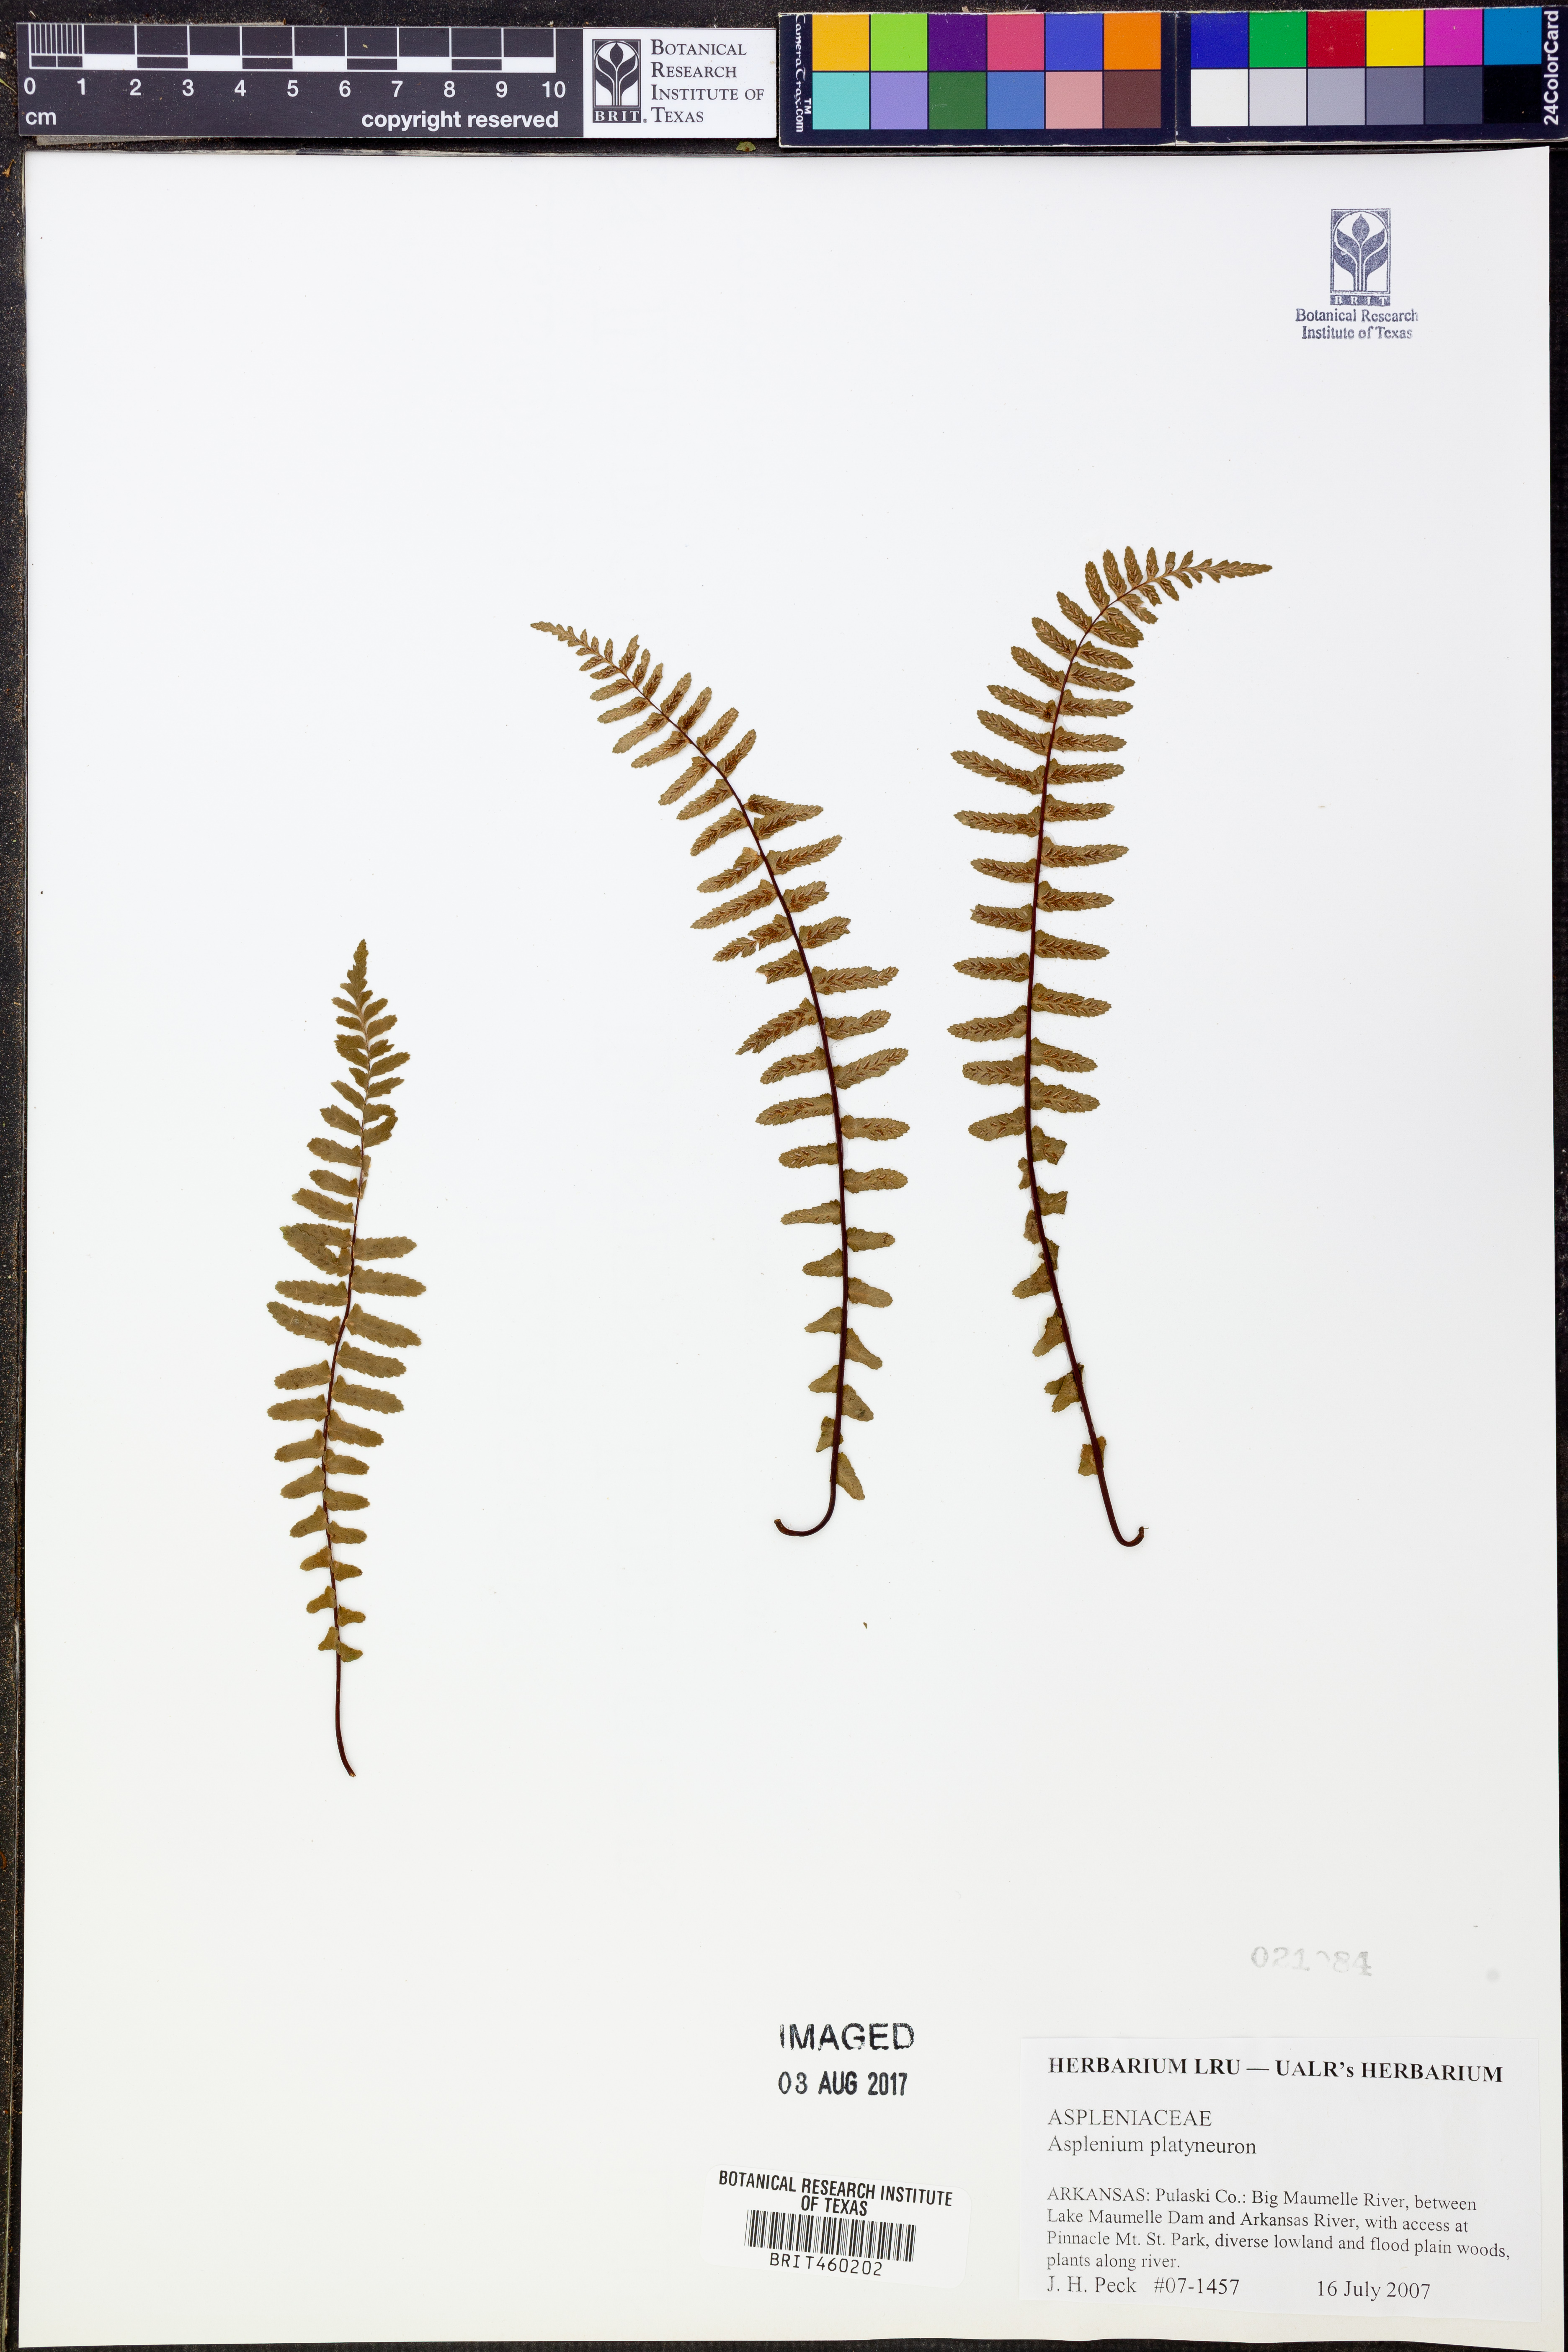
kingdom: Plantae
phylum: Tracheophyta
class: Polypodiopsida
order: Polypodiales
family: Aspleniaceae
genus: Asplenium
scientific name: Asplenium platyneuron
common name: Ebony spleenwort
